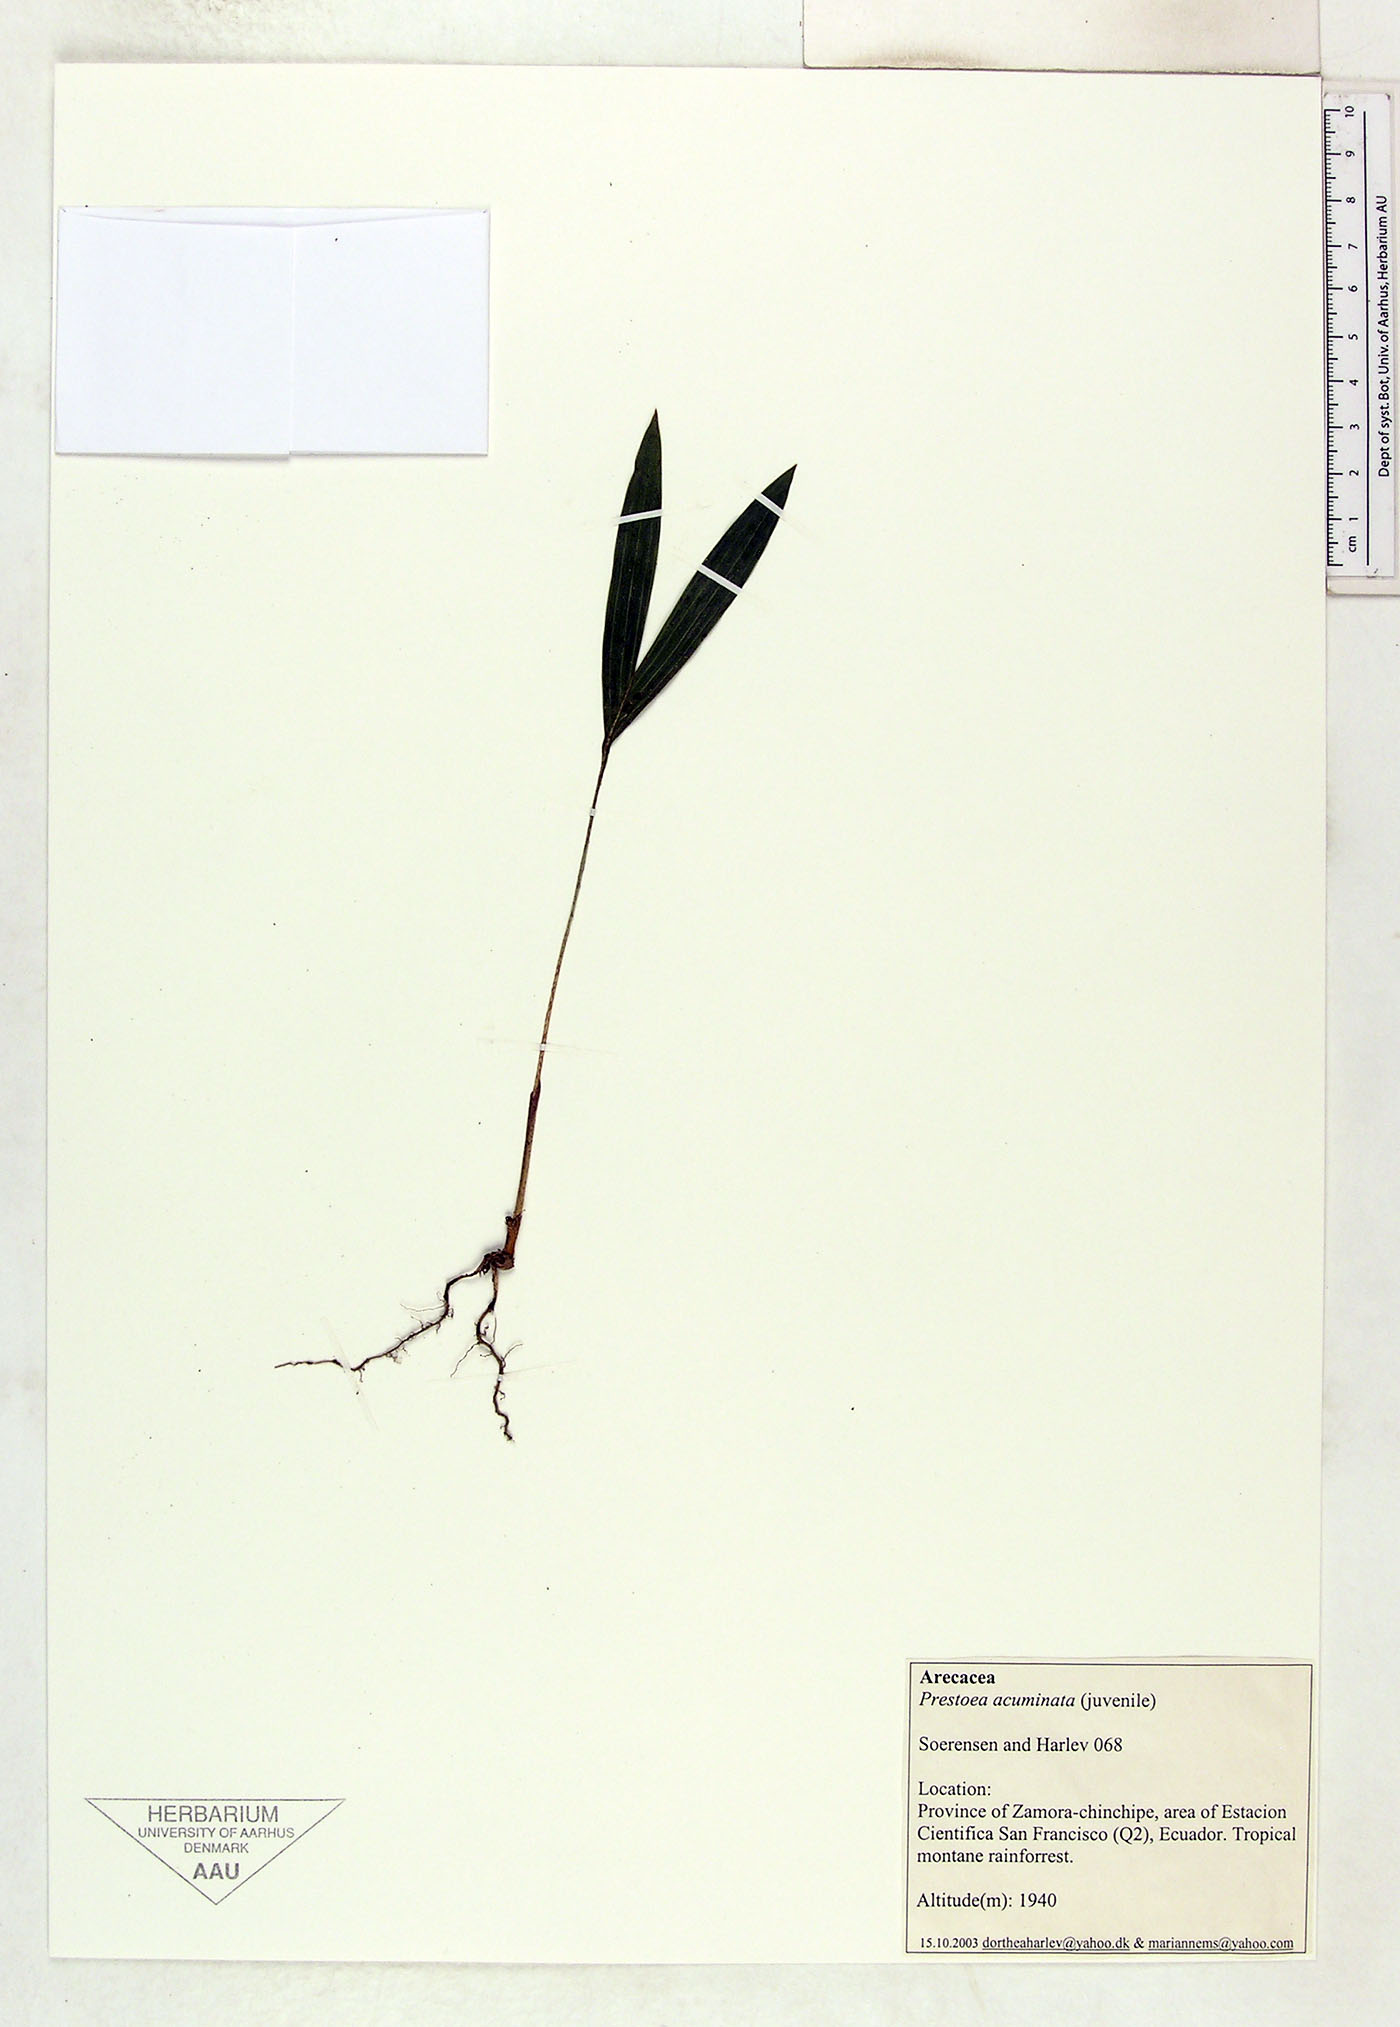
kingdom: Plantae
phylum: Tracheophyta
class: Liliopsida
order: Arecales
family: Arecaceae
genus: Prestoea
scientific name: Prestoea acuminata
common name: Sierran palm
